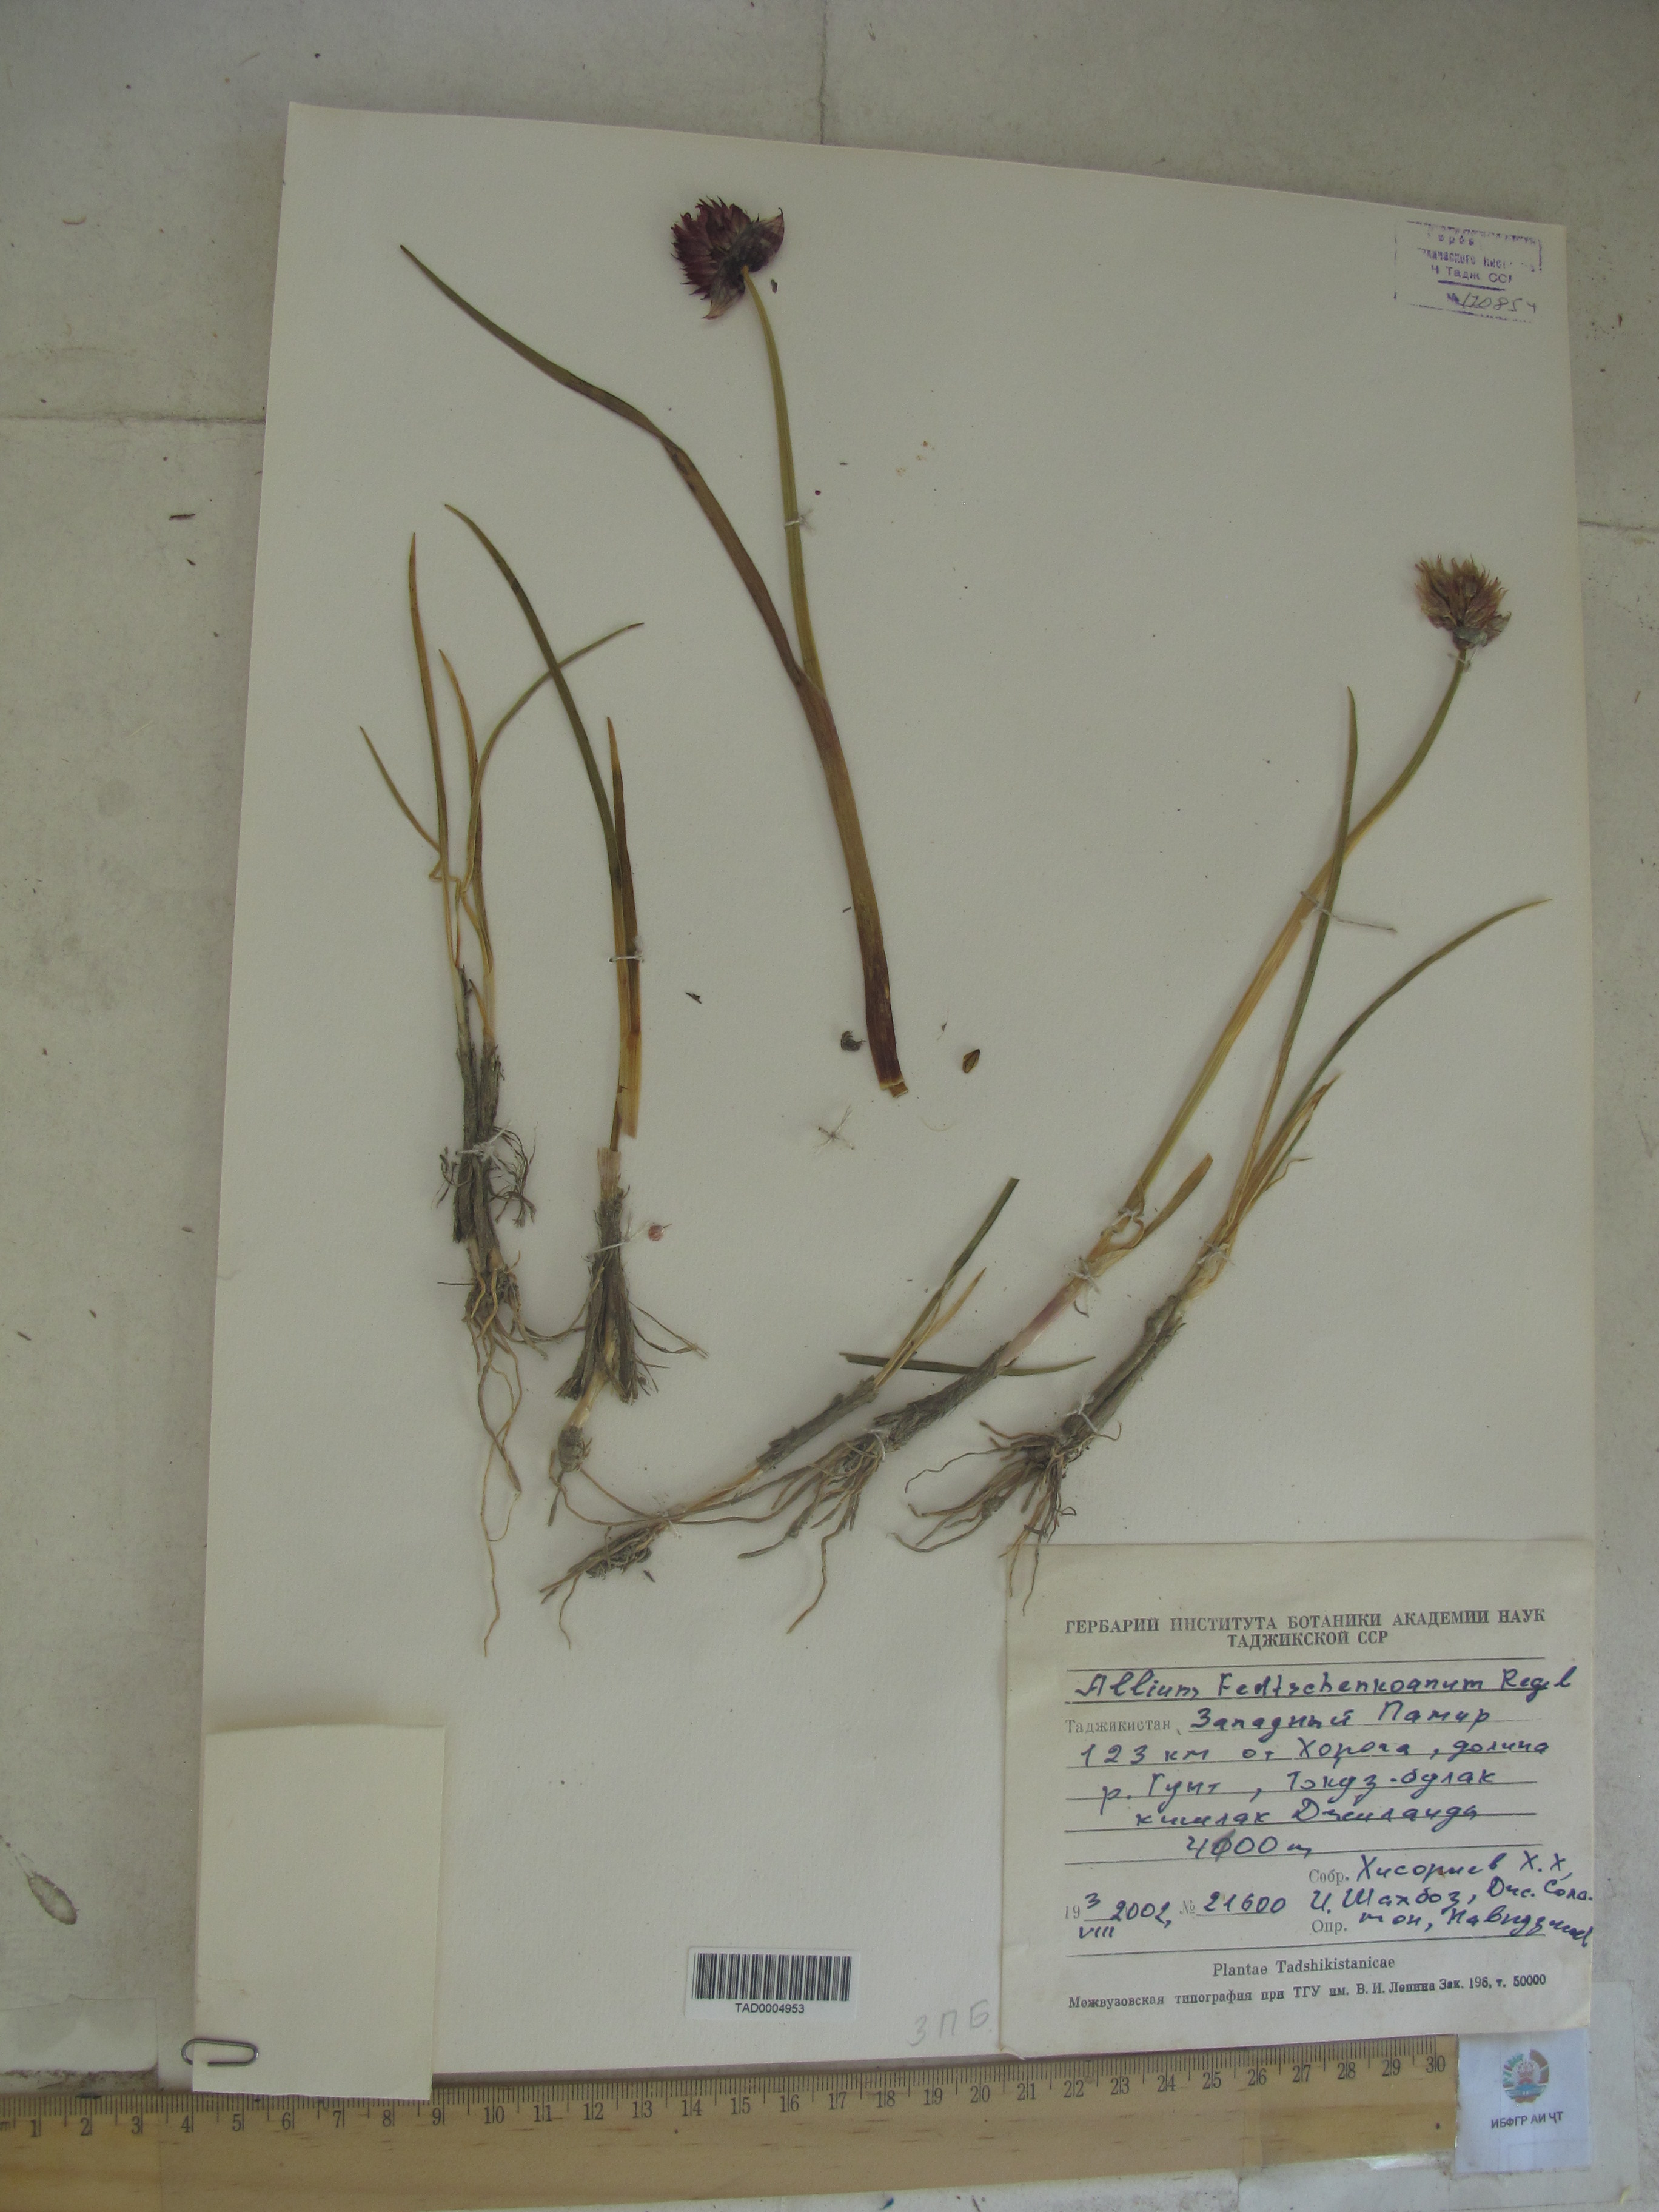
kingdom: Plantae
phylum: Tracheophyta
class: Liliopsida
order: Asparagales
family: Amaryllidaceae
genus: Allium
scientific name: Allium atrosanguineum
